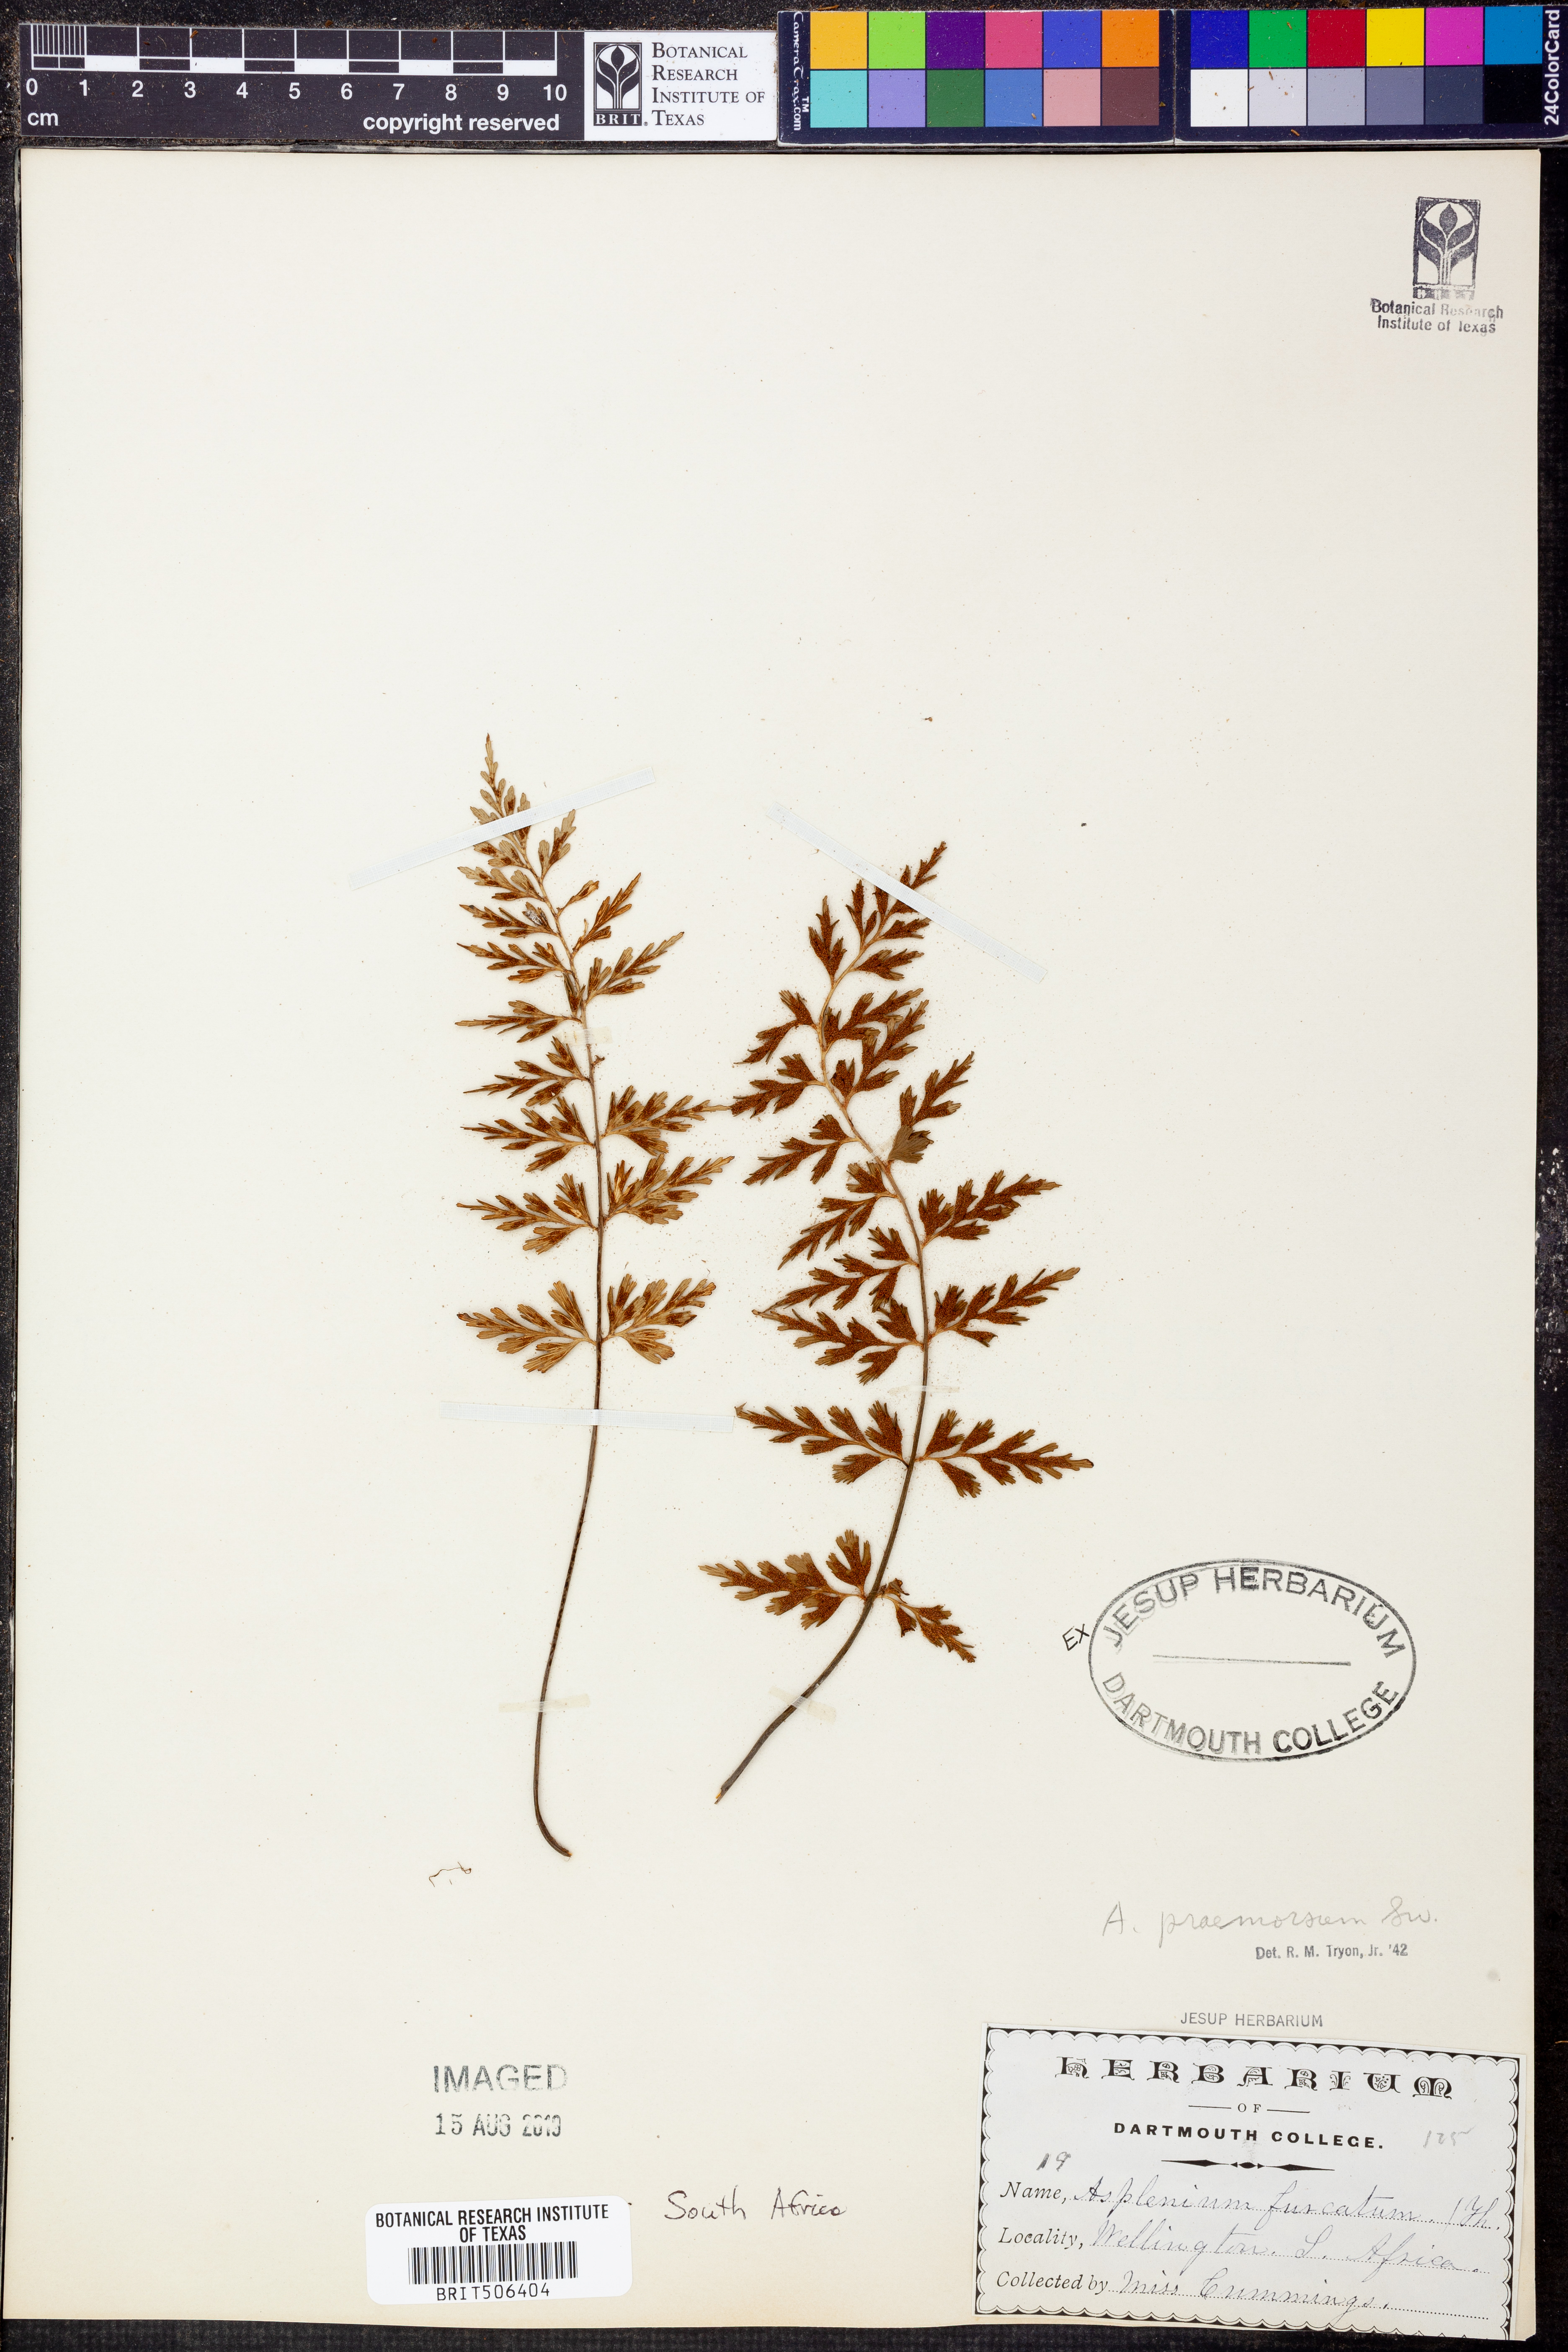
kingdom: Plantae
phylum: Tracheophyta
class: Polypodiopsida
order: Polypodiales
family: Aspleniaceae
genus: Asplenium
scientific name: Asplenium praemorsum
